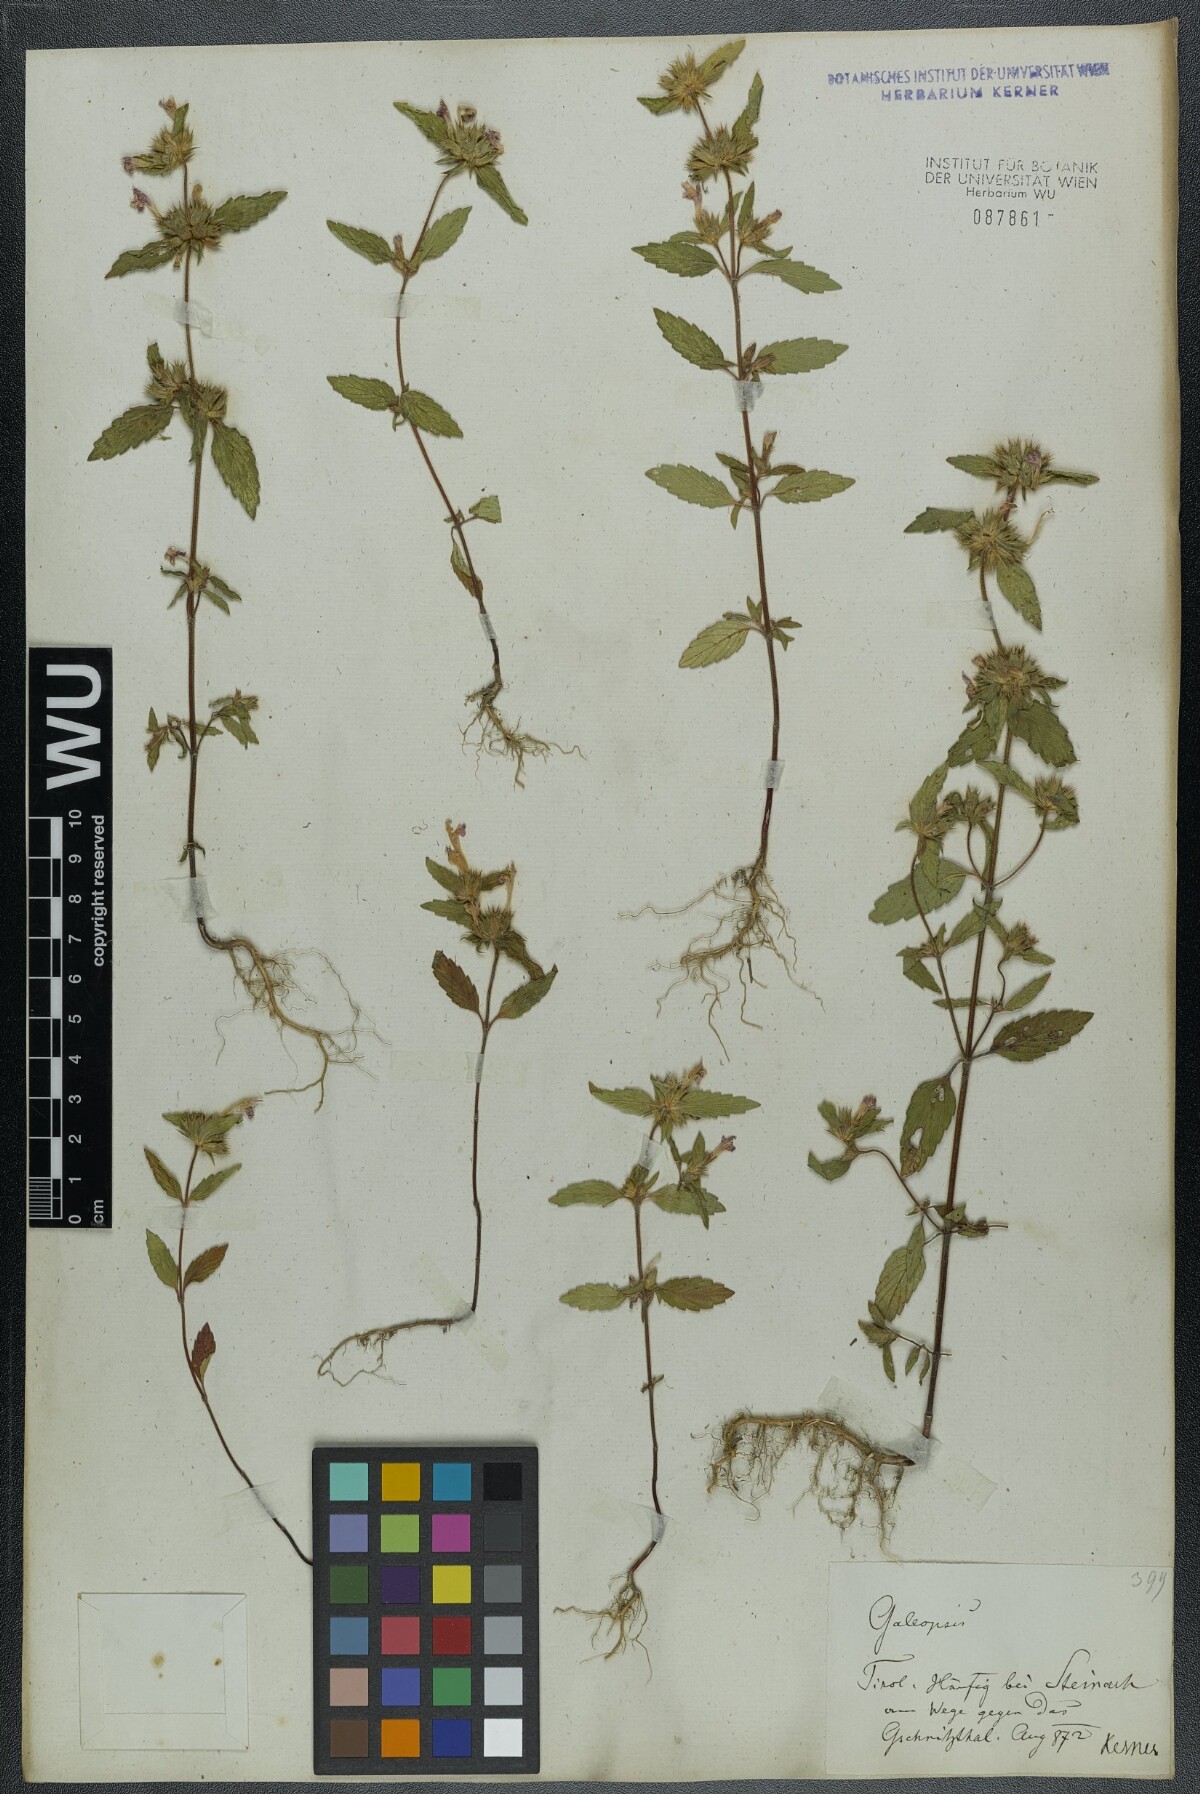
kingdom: Plantae
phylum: Tracheophyta
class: Magnoliopsida
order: Lamiales
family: Lamiaceae
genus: Galeopsis
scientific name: Galeopsis ladanum
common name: Broad-leaved hemp-nettle
